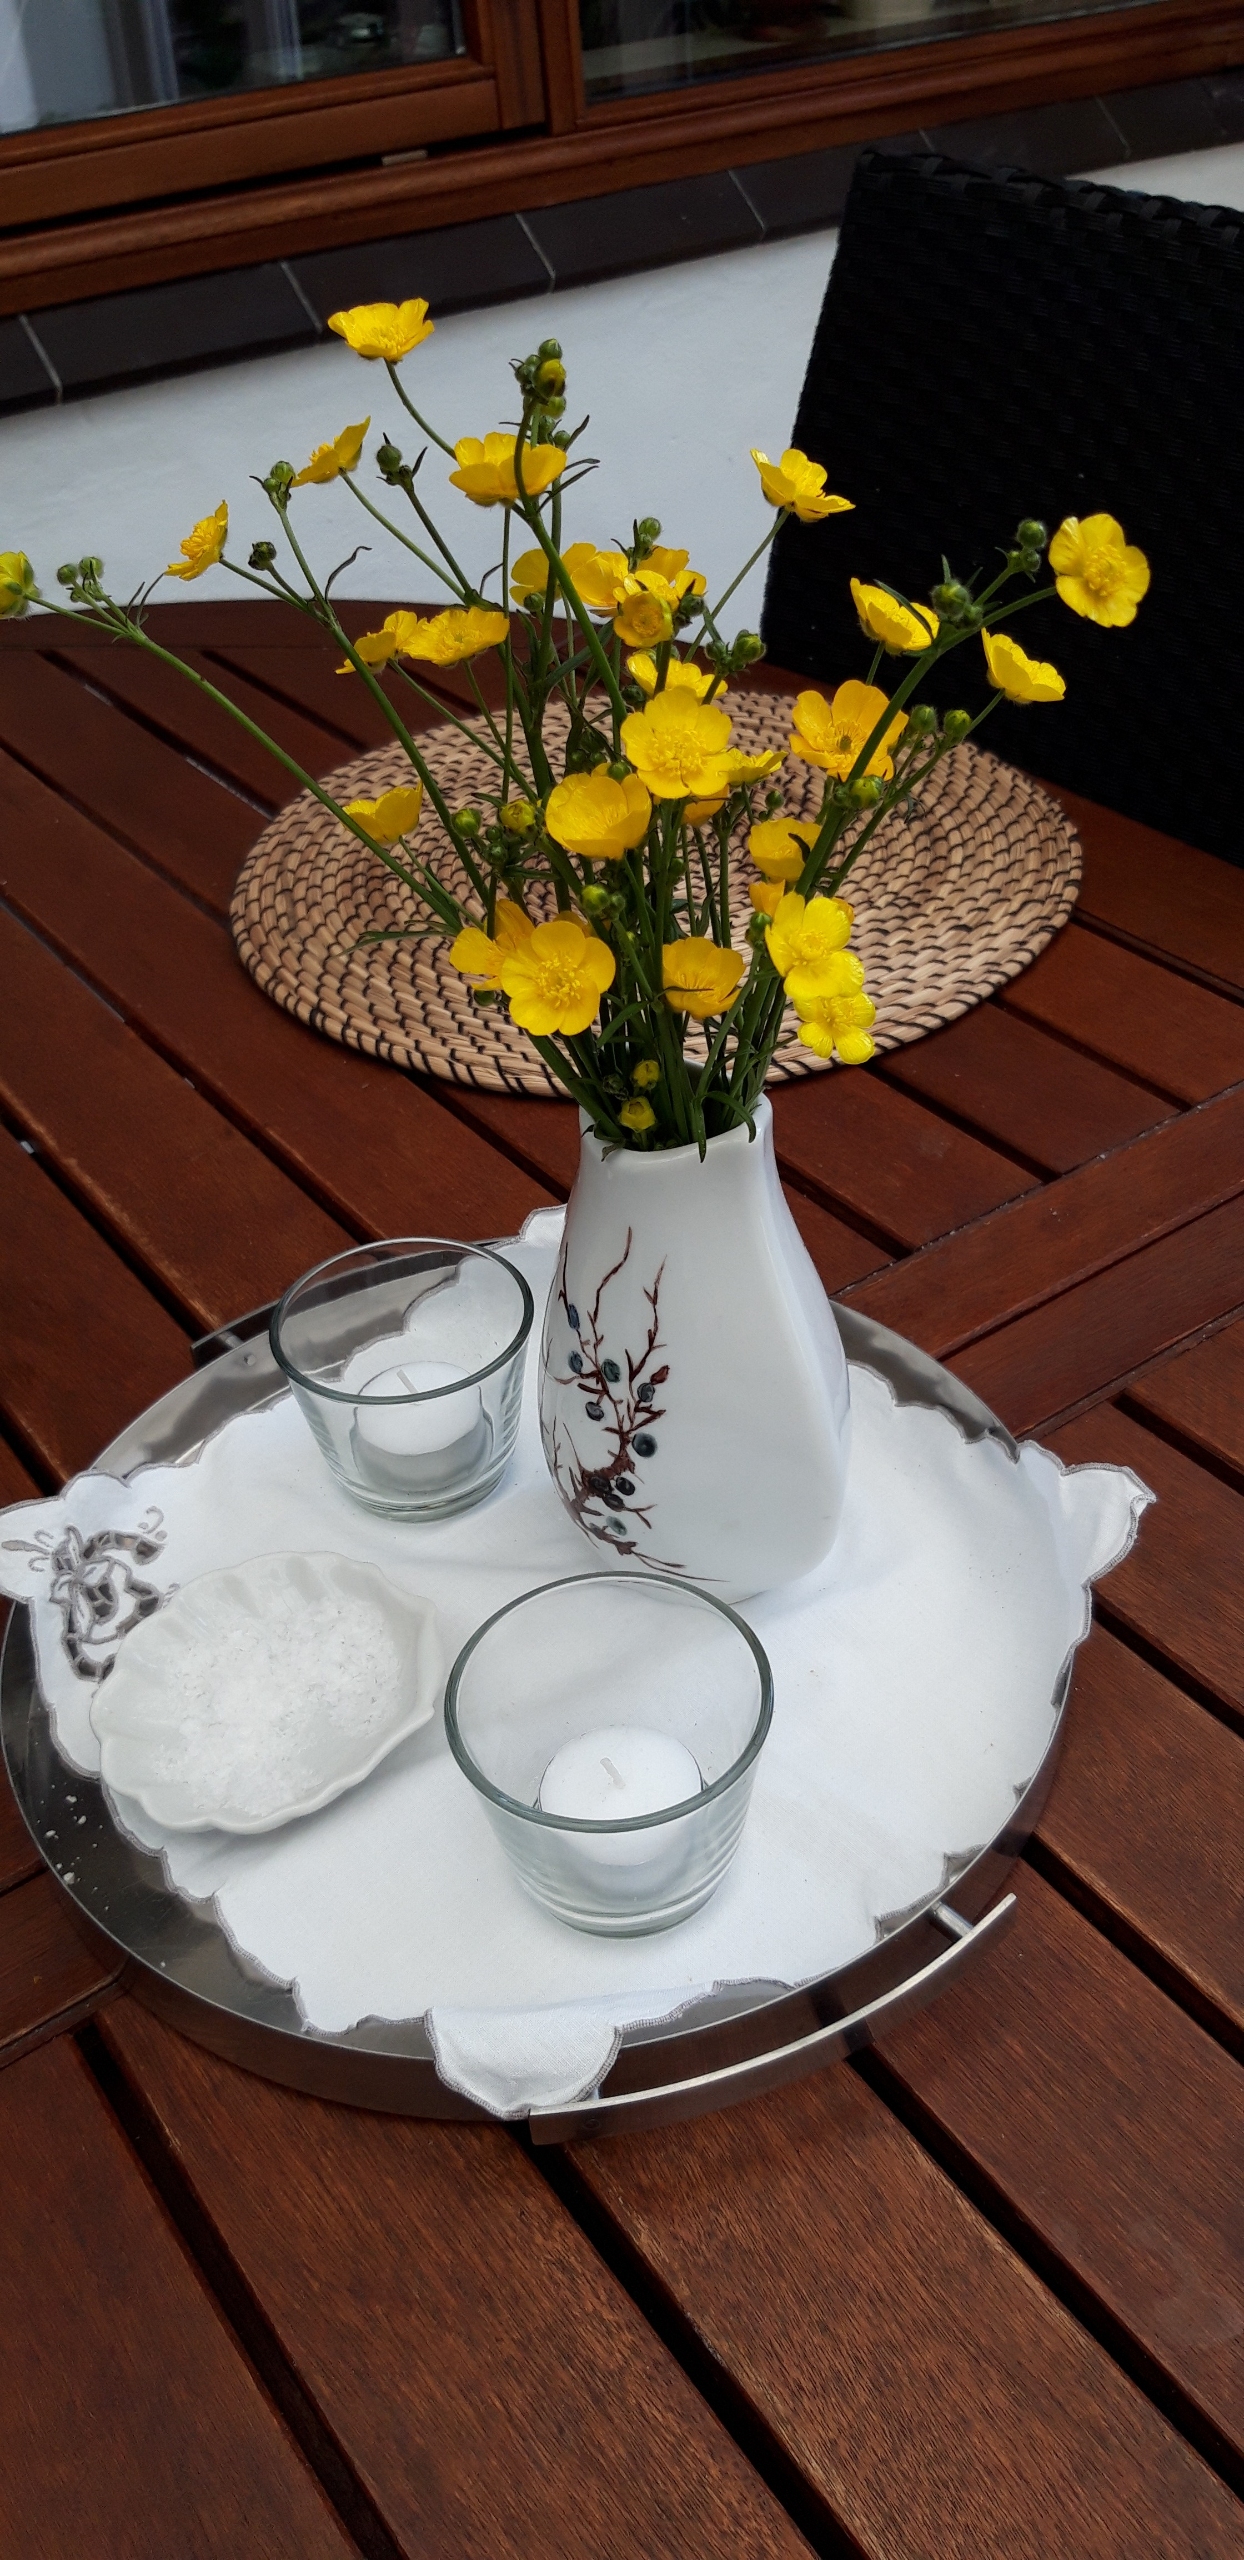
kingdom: Plantae
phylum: Tracheophyta
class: Magnoliopsida
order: Ranunculales
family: Ranunculaceae
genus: Ranunculus
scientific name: Ranunculus acris
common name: Bidende ranunkel
